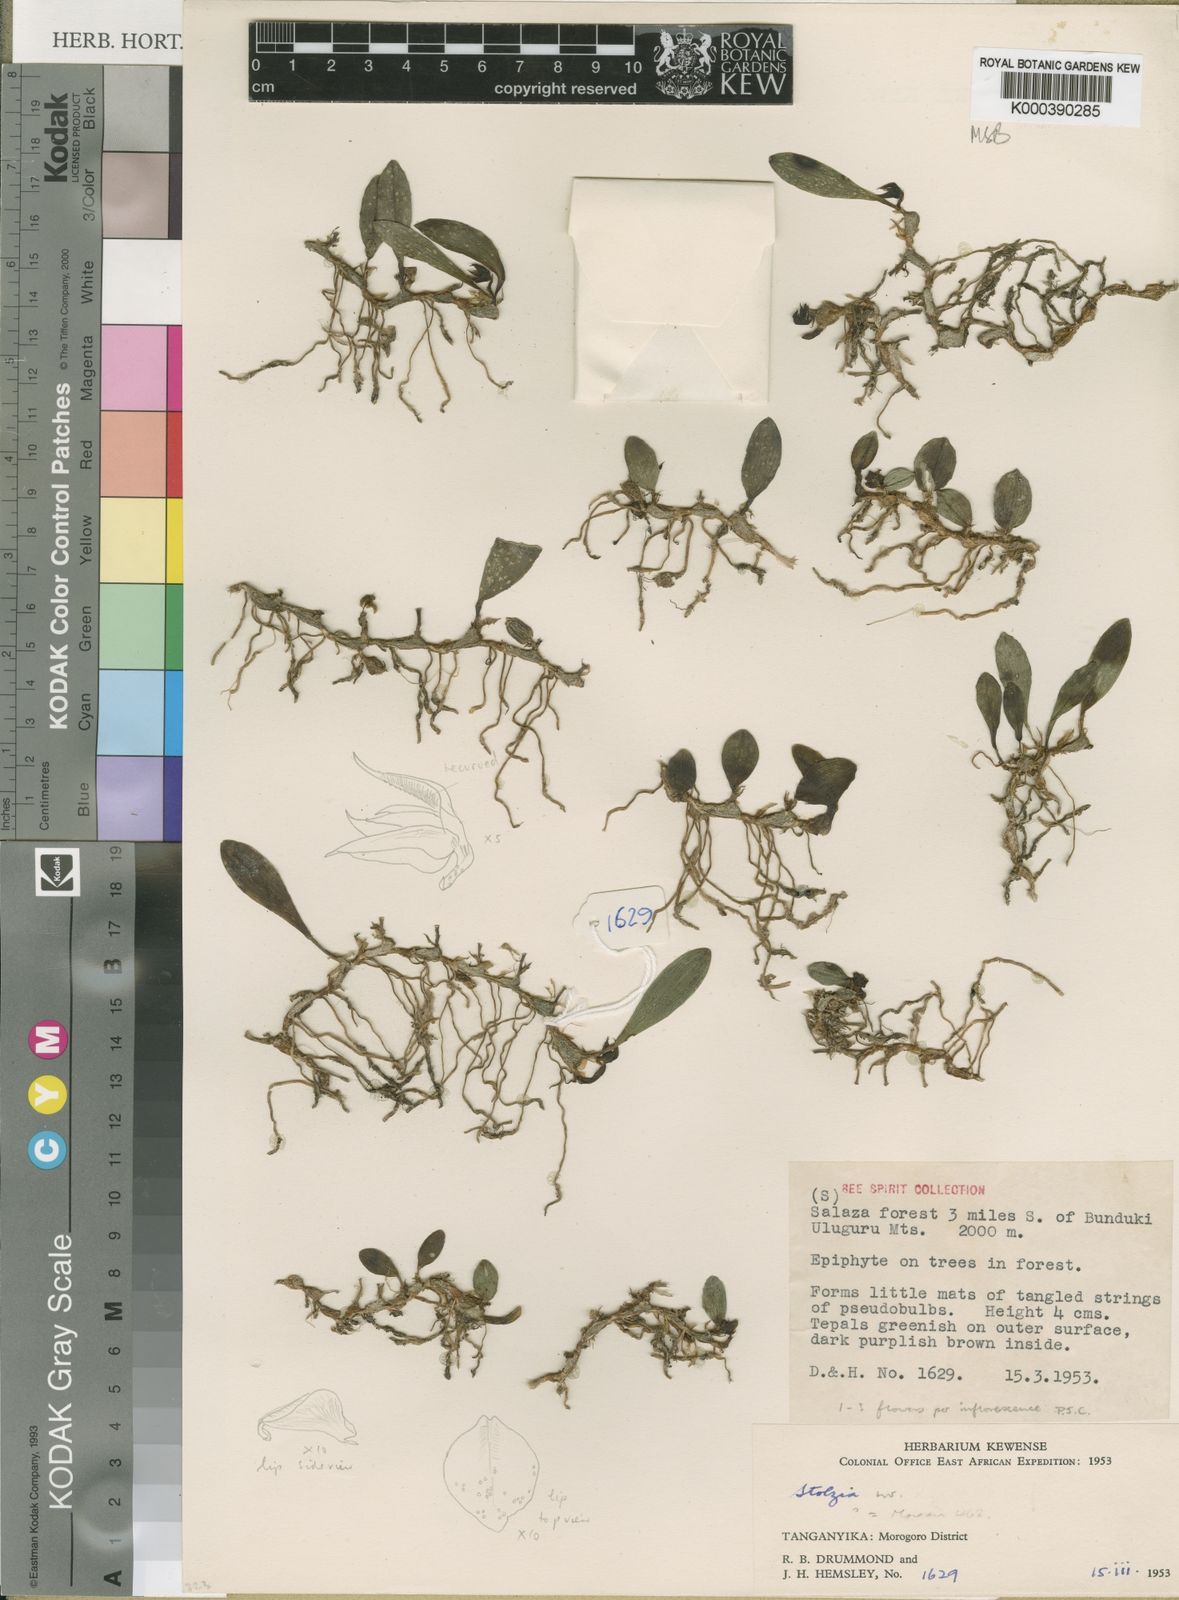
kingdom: Plantae
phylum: Tracheophyta
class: Liliopsida
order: Asparagales
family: Orchidaceae
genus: Porpax
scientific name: Porpax moniliformis
